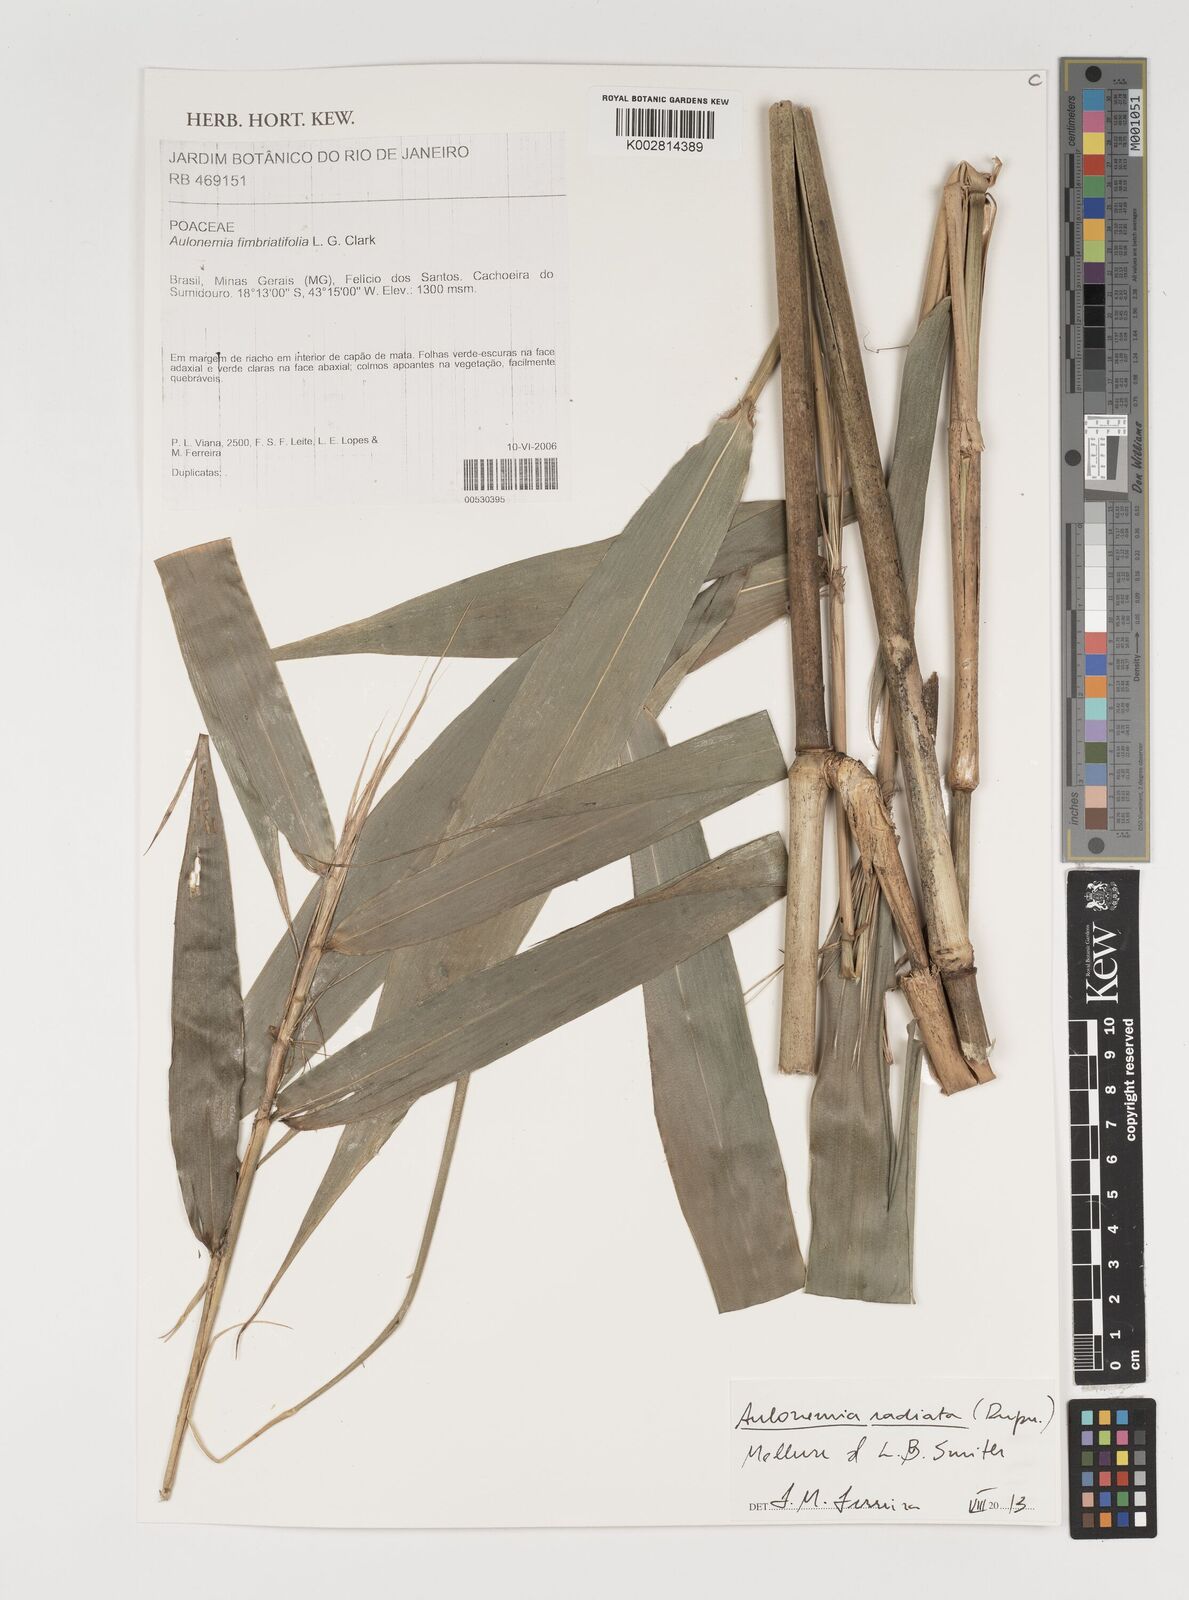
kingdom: Plantae
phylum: Tracheophyta
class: Liliopsida
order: Poales
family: Poaceae
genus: Aulonemia
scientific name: Aulonemia radiata
